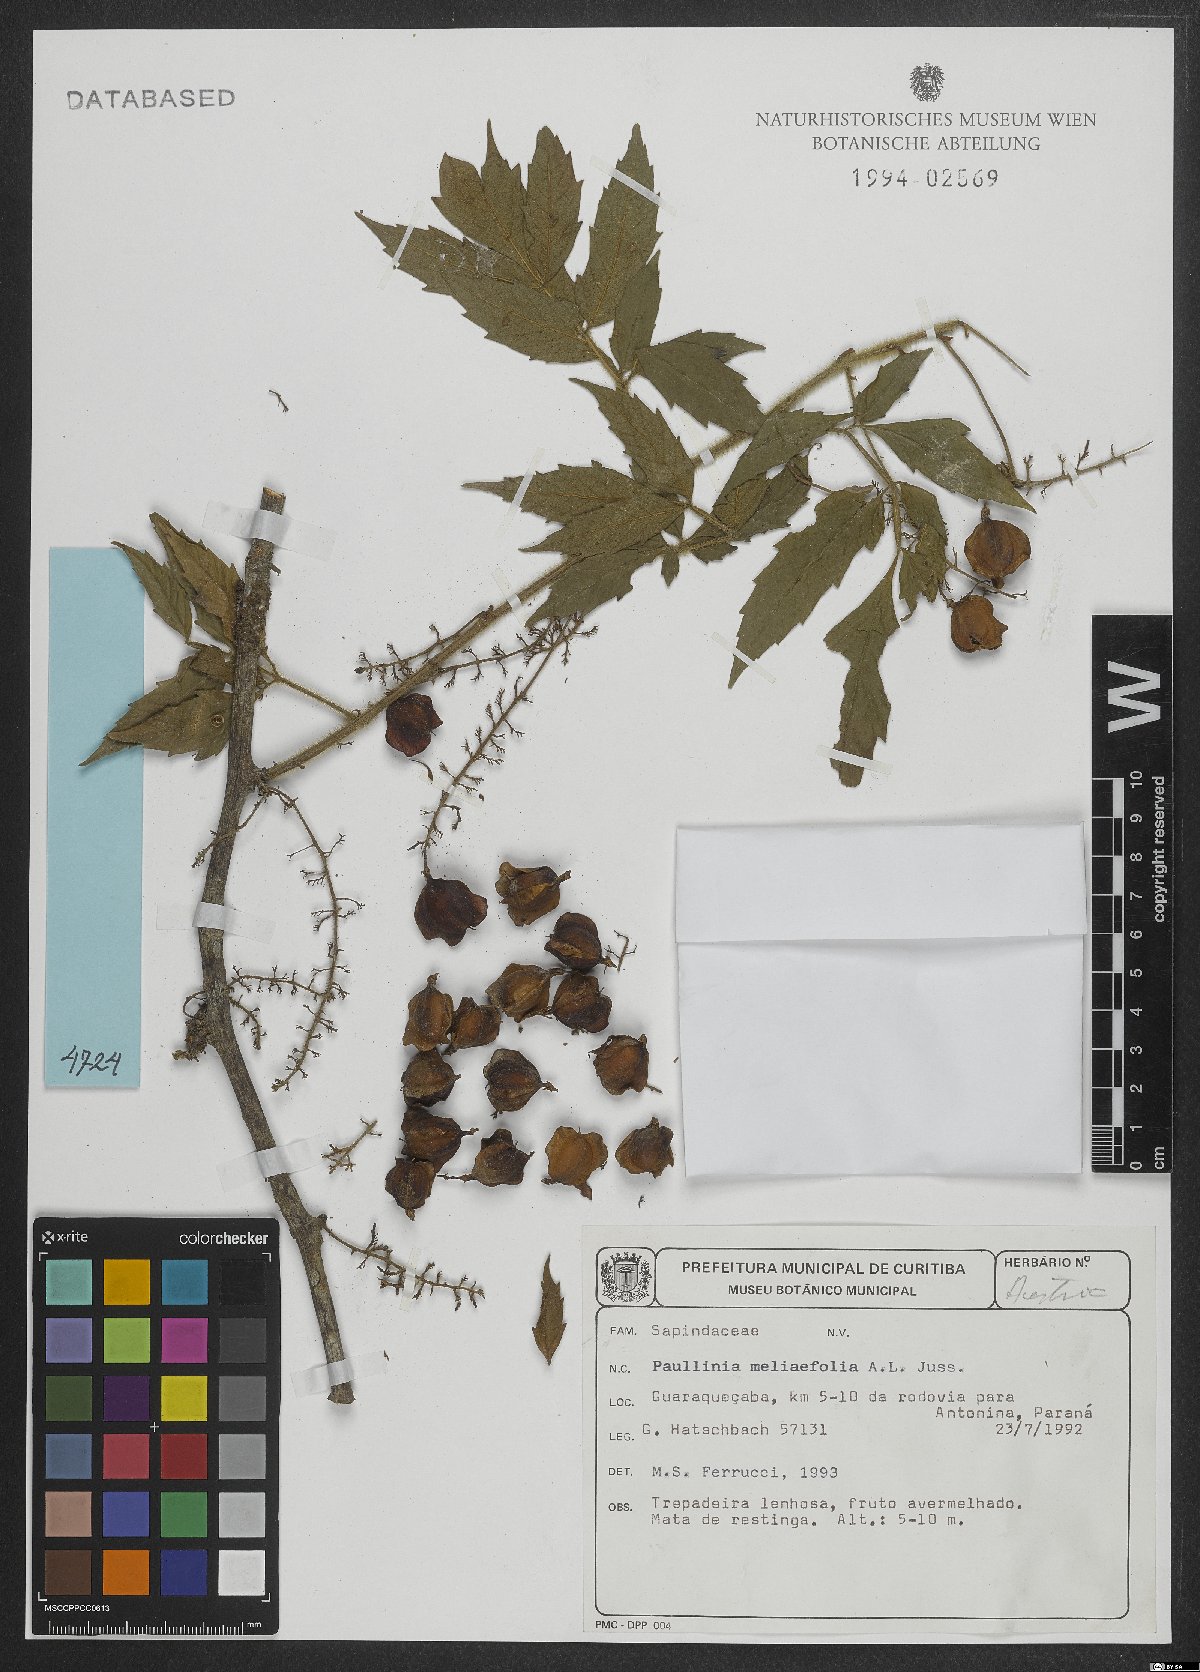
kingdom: Plantae
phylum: Tracheophyta
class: Magnoliopsida
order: Sapindales
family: Sapindaceae
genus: Paullinia
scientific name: Paullinia meliifolia
